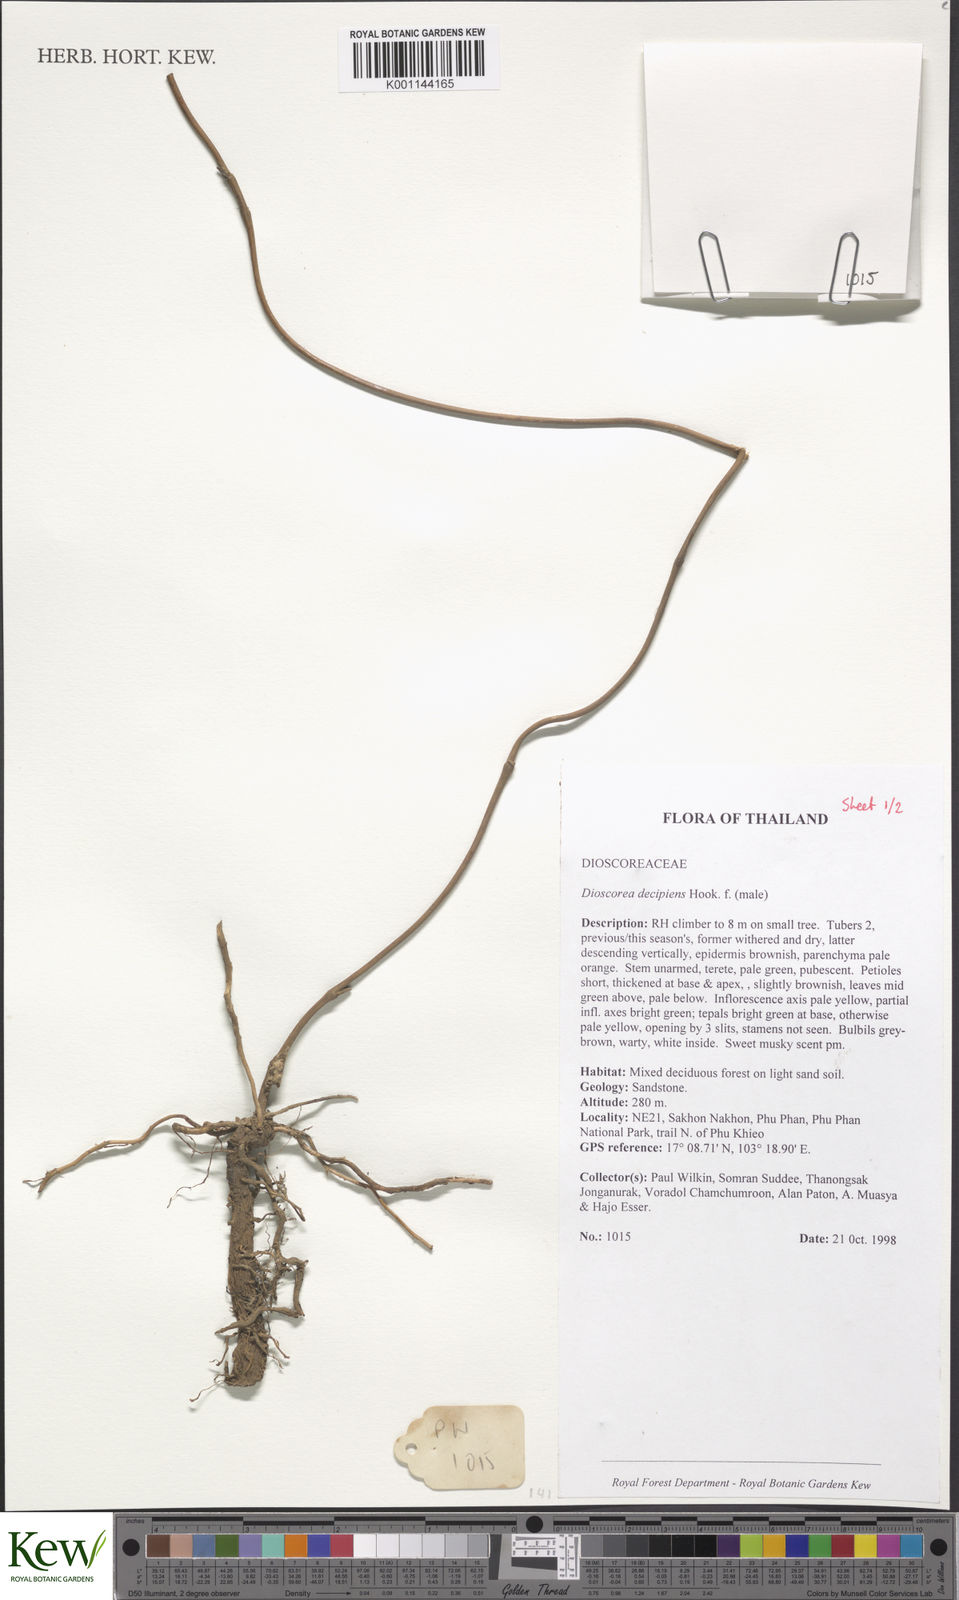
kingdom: Plantae
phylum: Tracheophyta
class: Liliopsida
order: Dioscoreales
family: Dioscoreaceae
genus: Dioscorea
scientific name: Dioscorea decipiens
